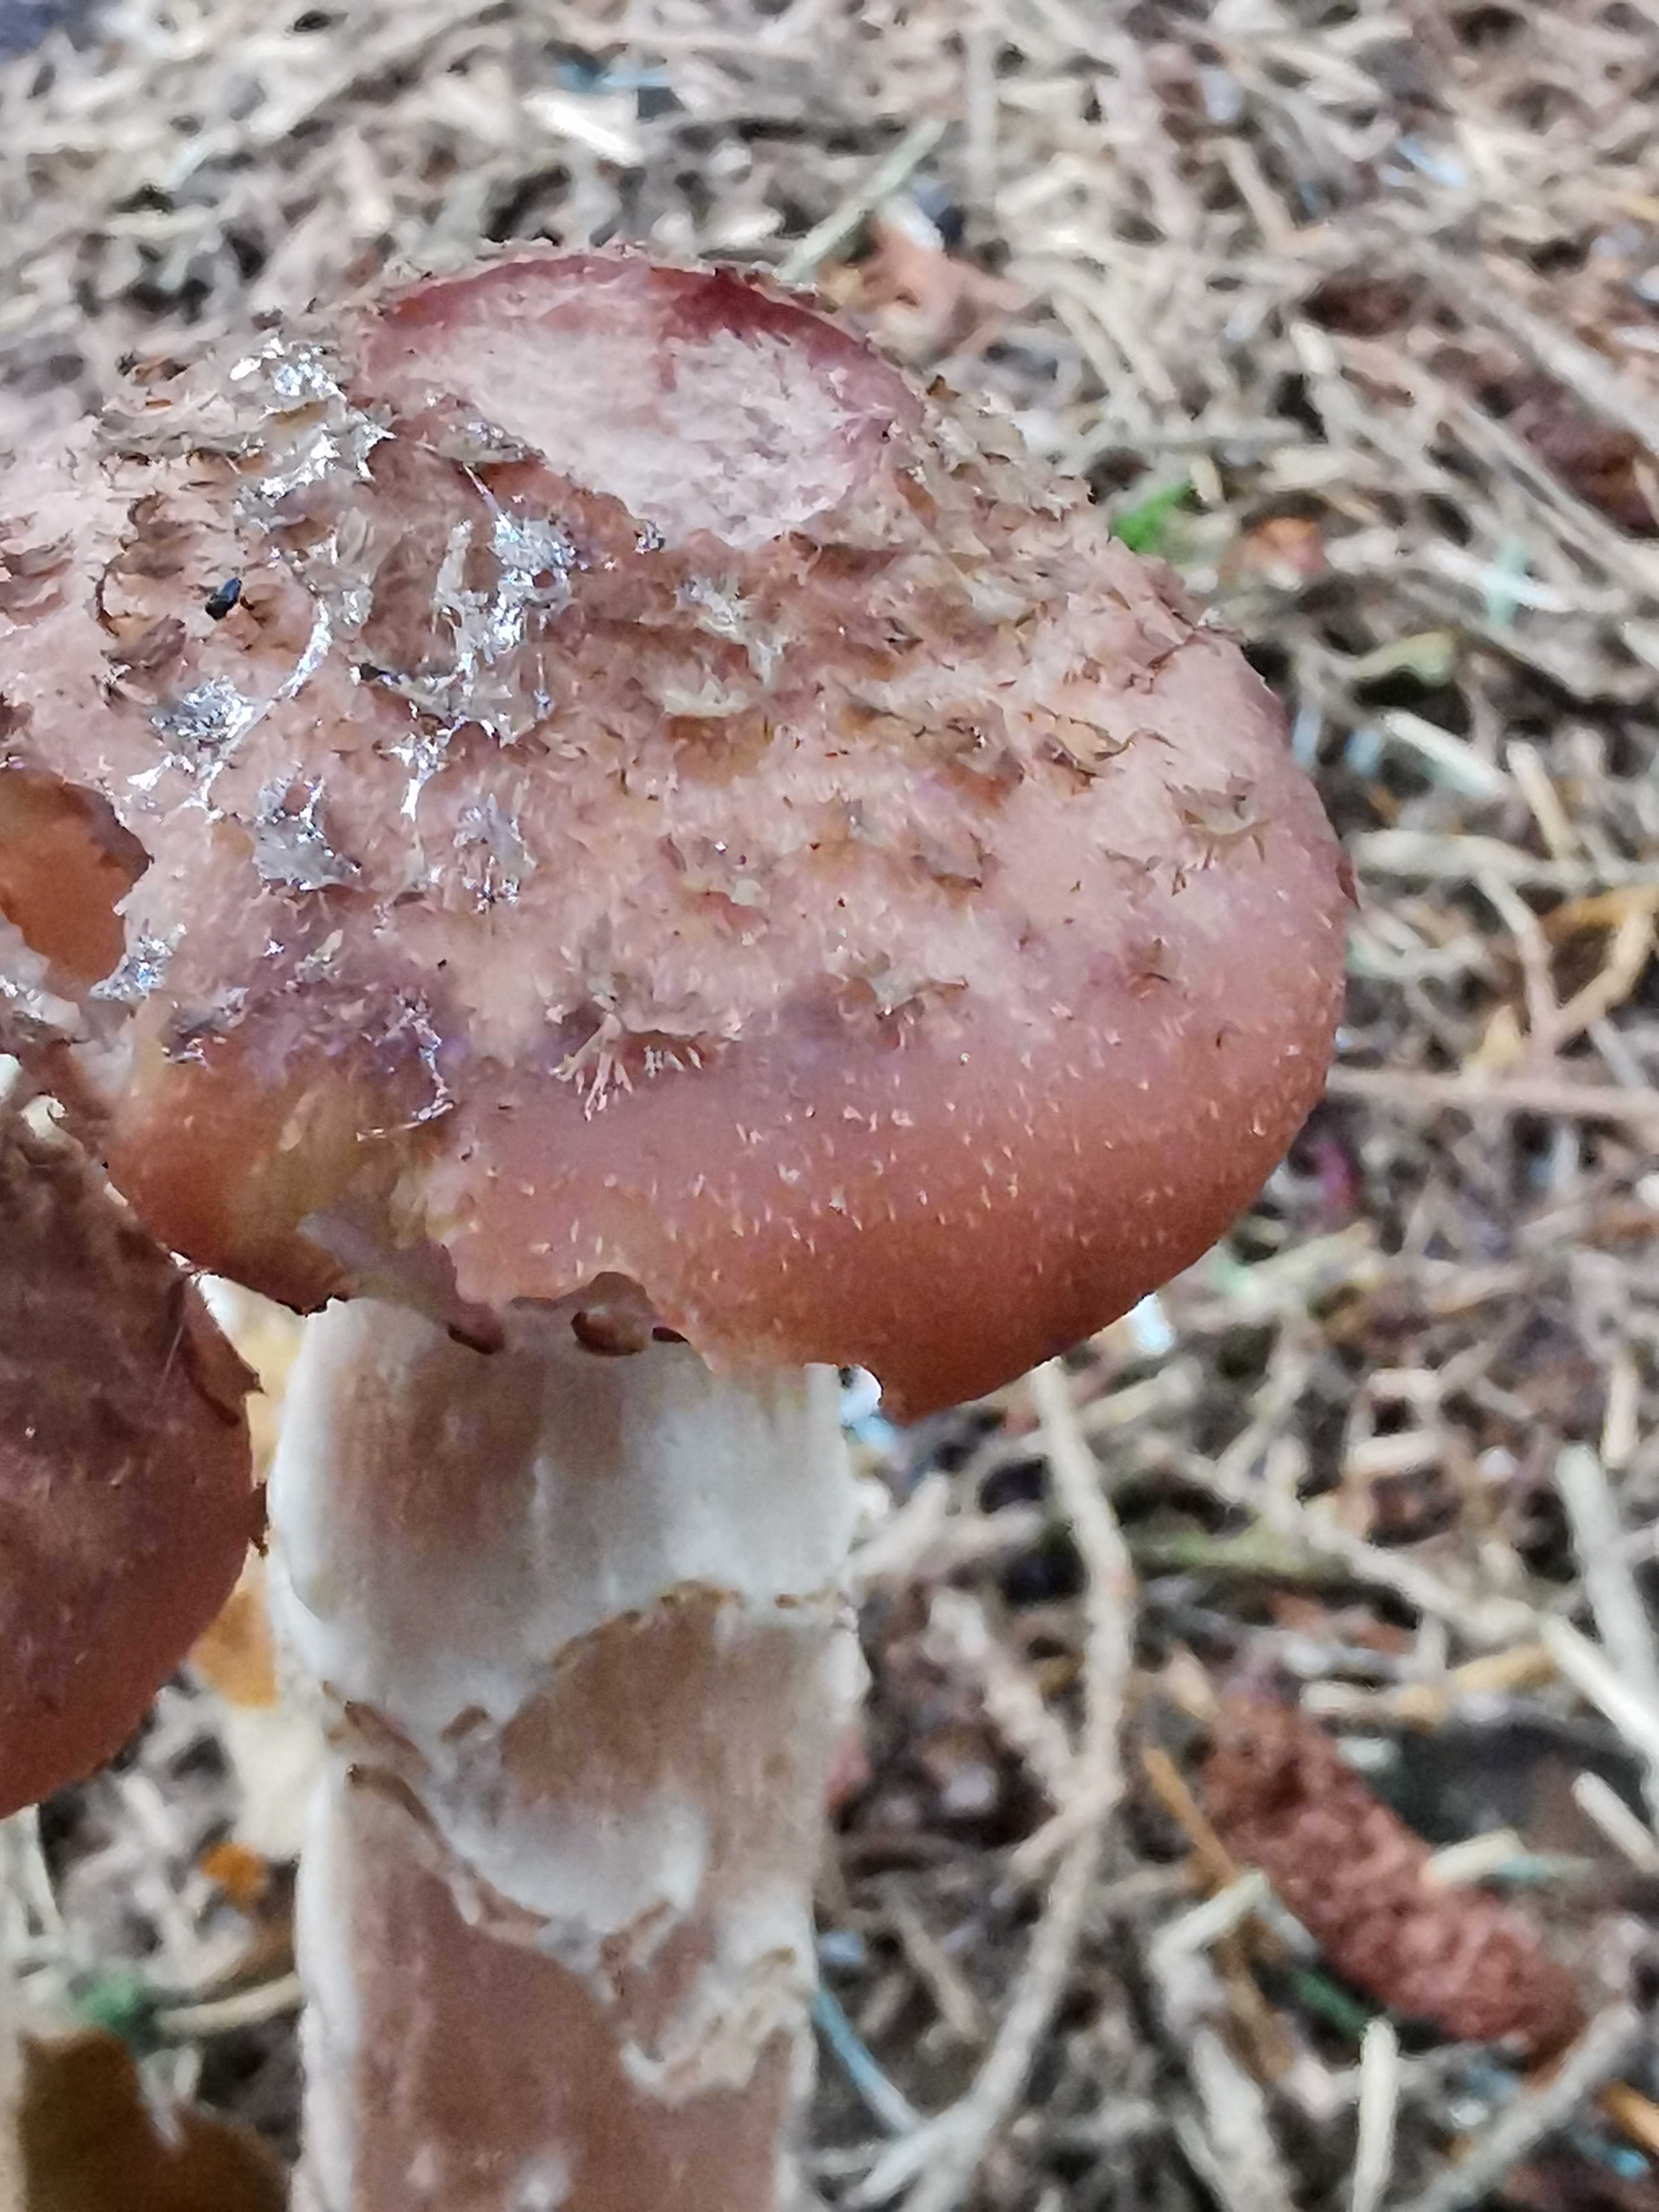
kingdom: Fungi
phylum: Basidiomycota
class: Agaricomycetes
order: Agaricales
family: Physalacriaceae
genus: Armillaria
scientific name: Armillaria ostoyae
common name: mørk honningsvamp
